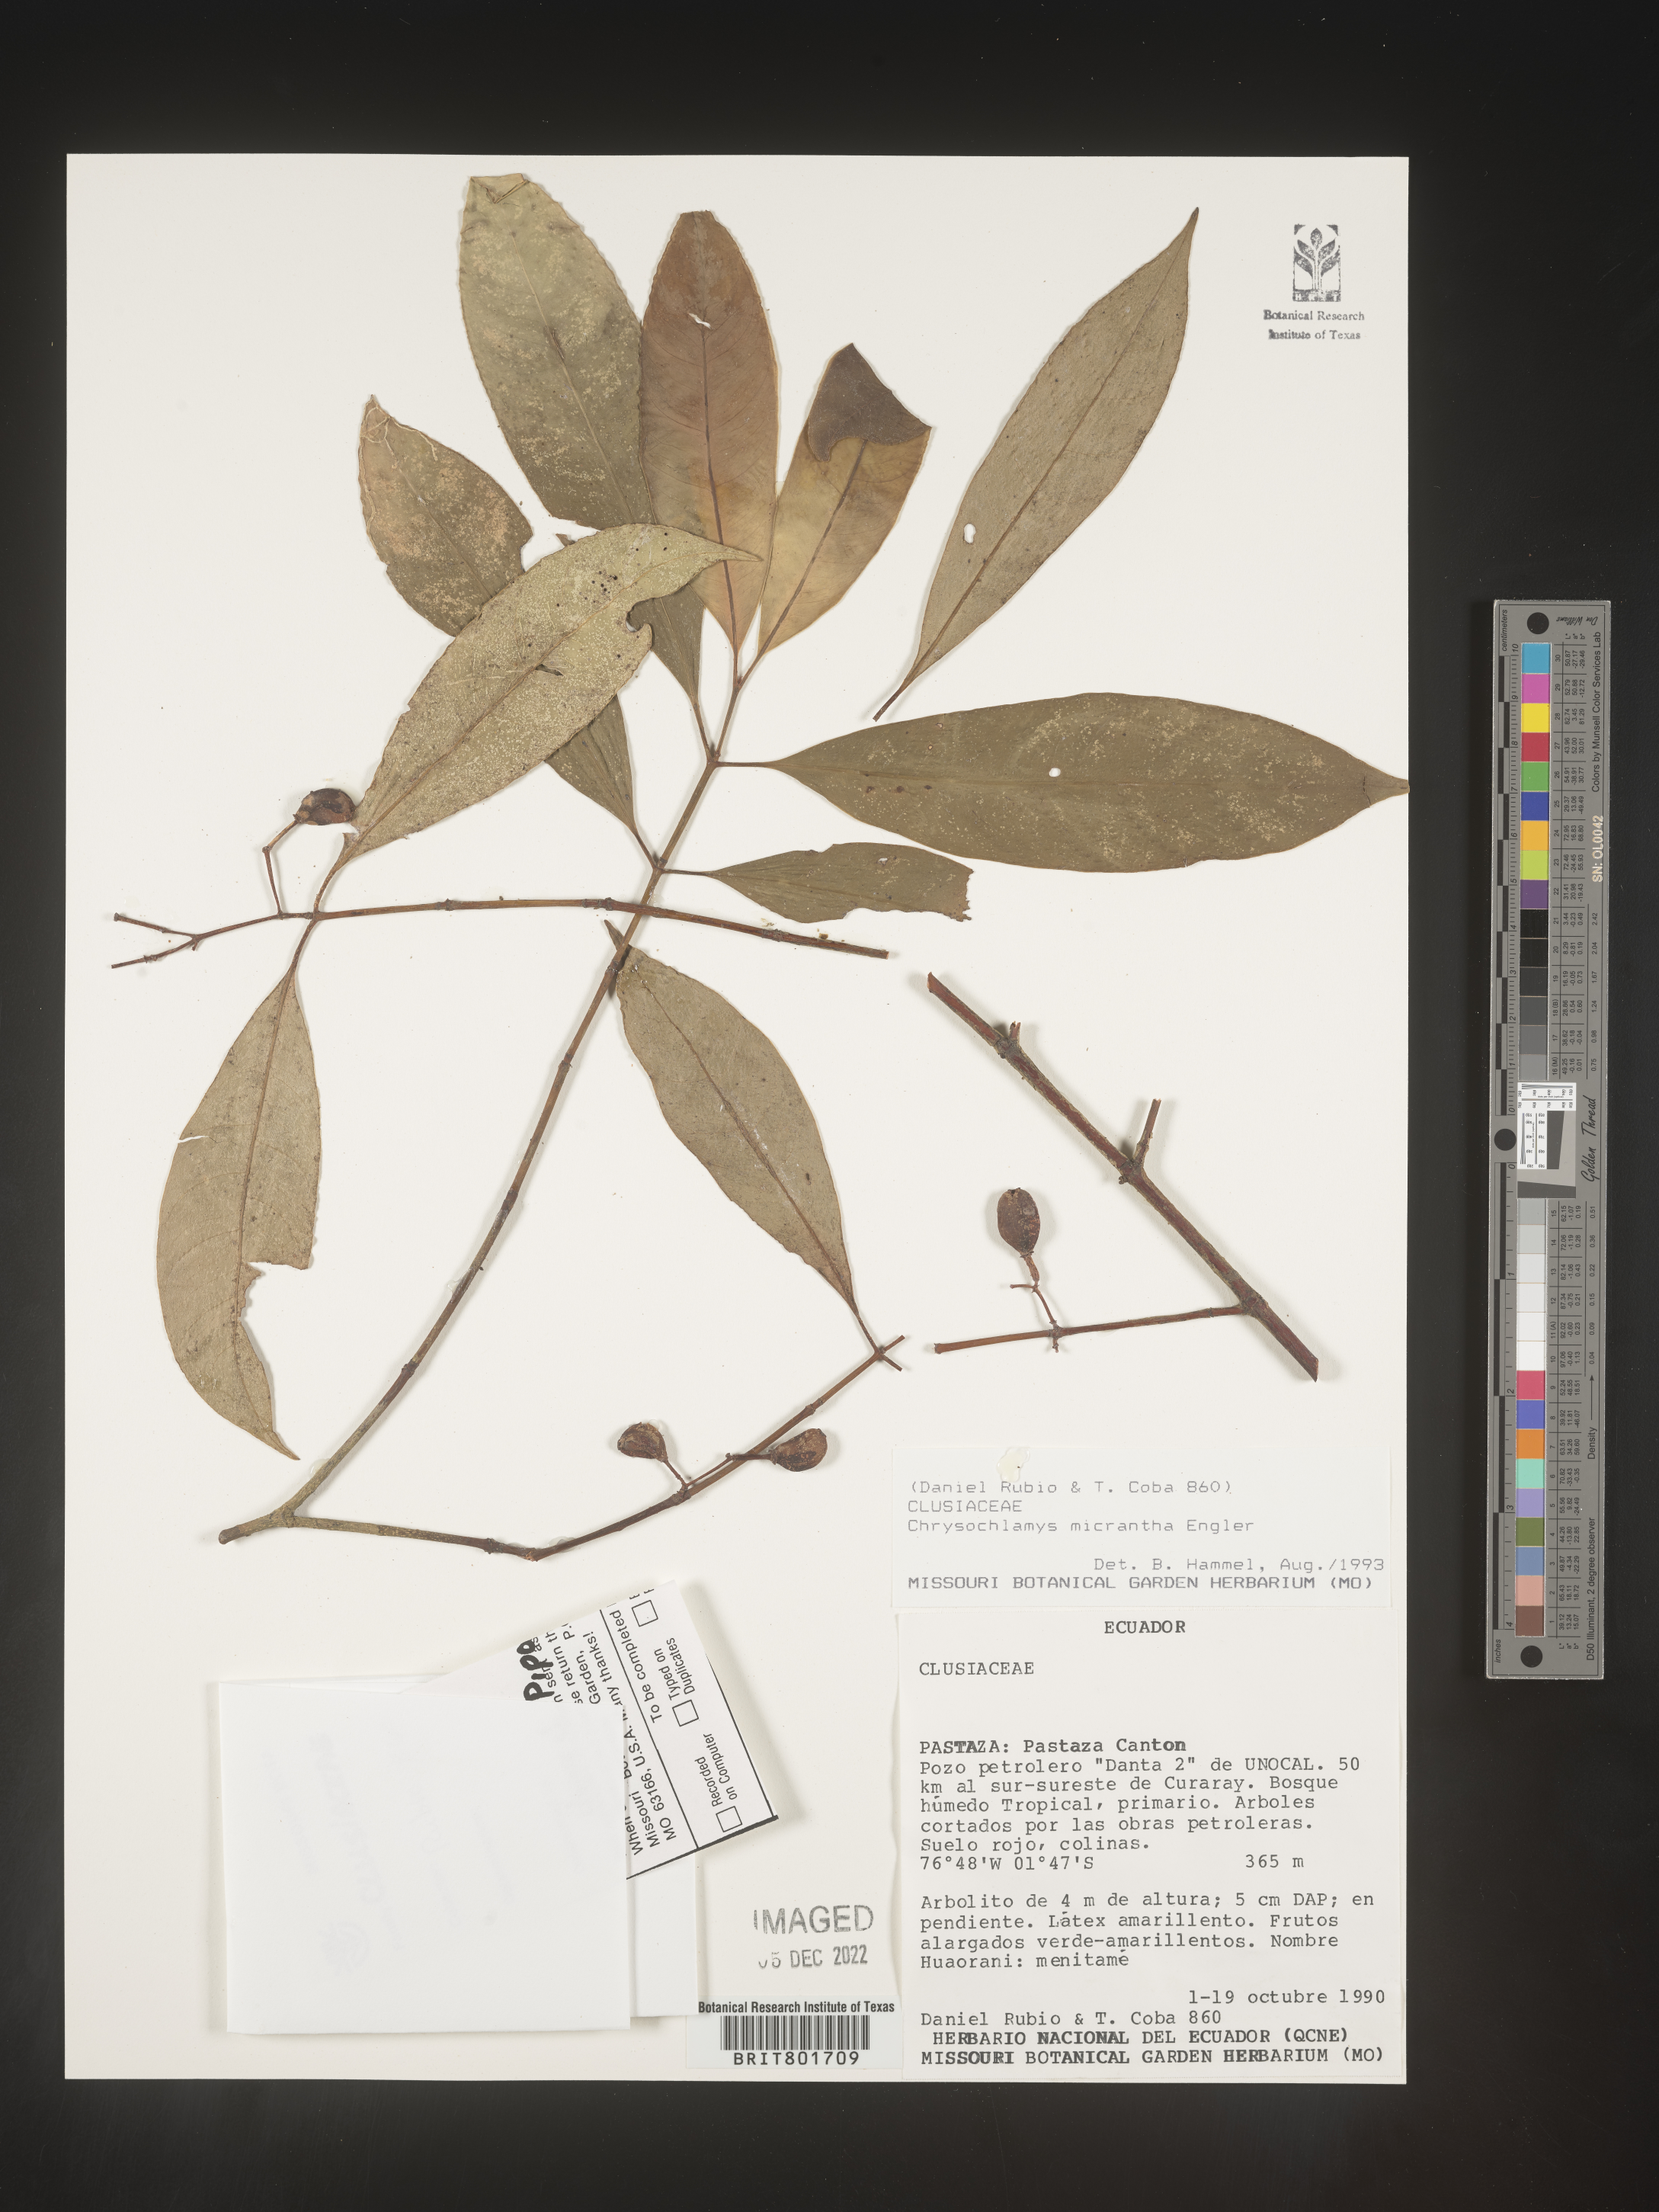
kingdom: Plantae
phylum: Tracheophyta
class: Magnoliopsida
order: Malpighiales
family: Clusiaceae
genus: Chrysochlamys
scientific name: Chrysochlamys
